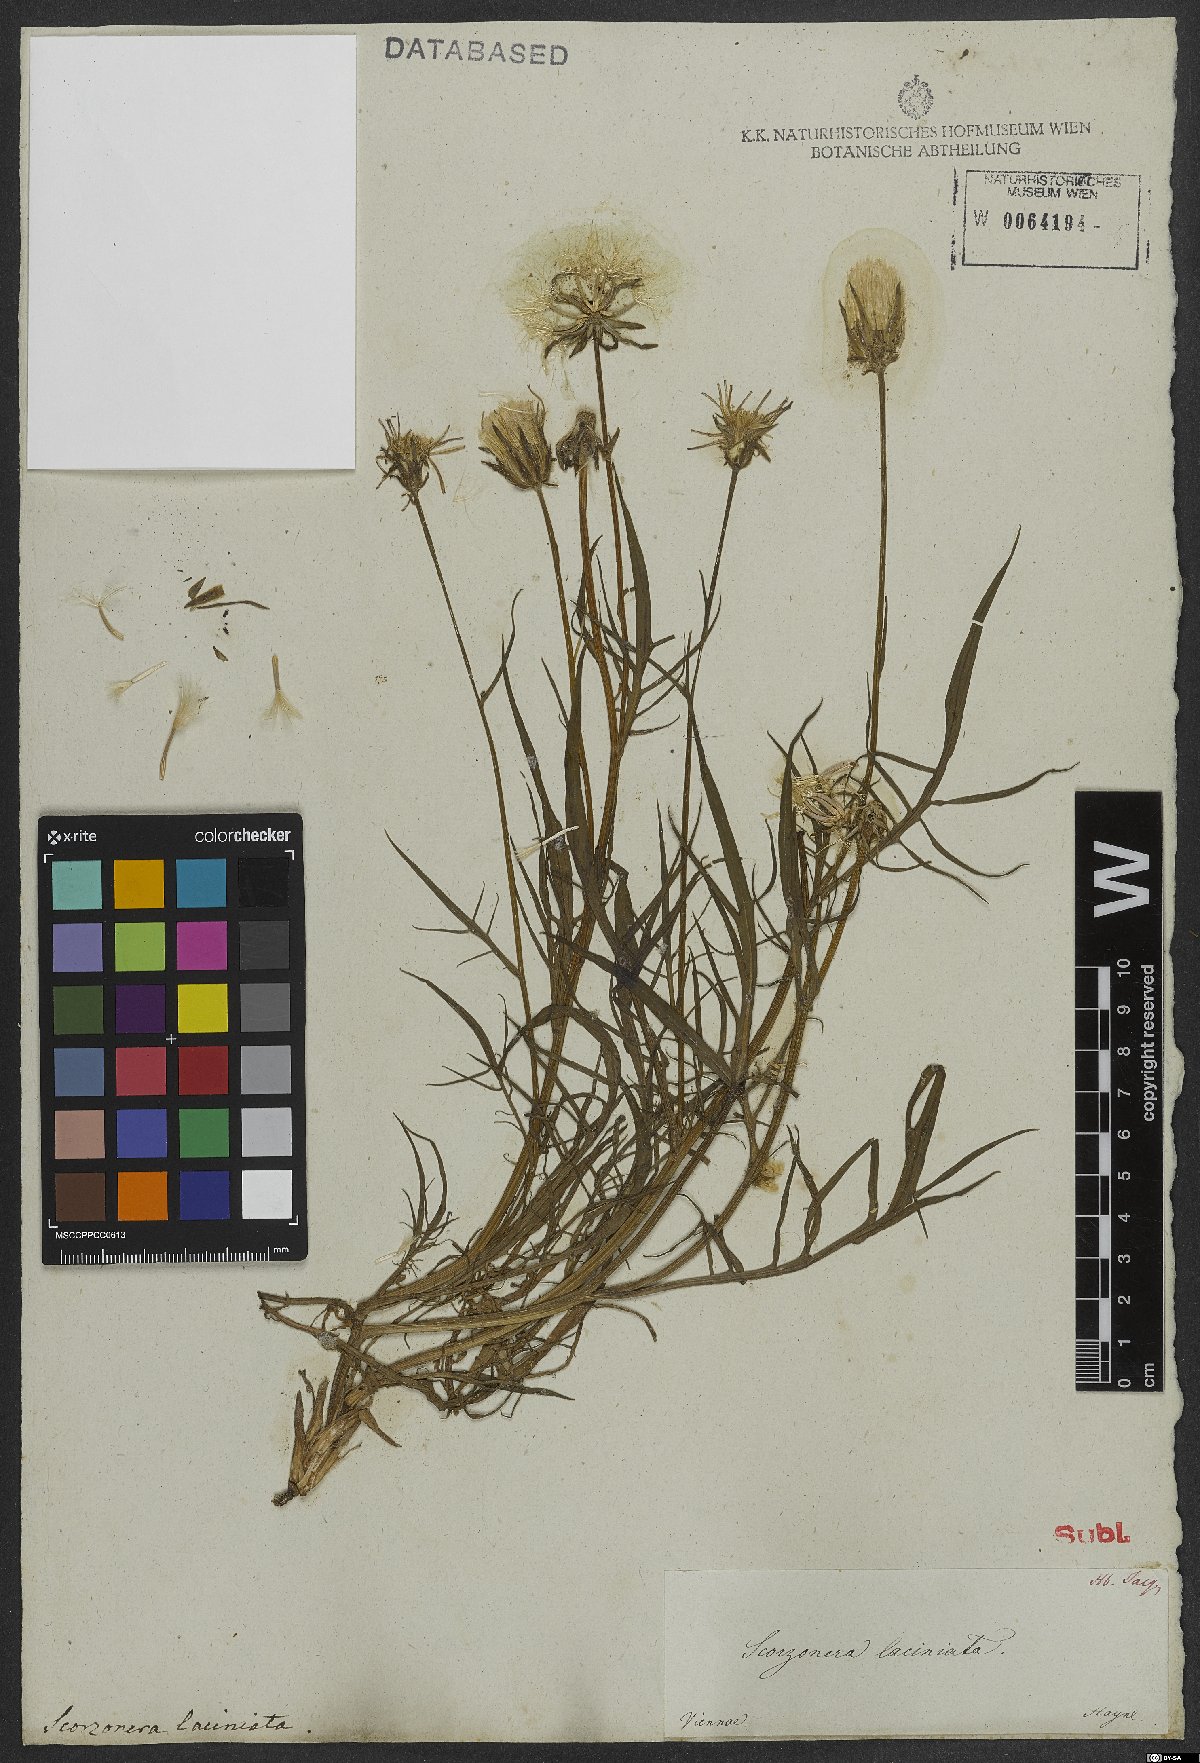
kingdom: Plantae
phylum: Tracheophyta
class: Magnoliopsida
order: Asterales
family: Asteraceae
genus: Scorzonera
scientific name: Scorzonera cana
